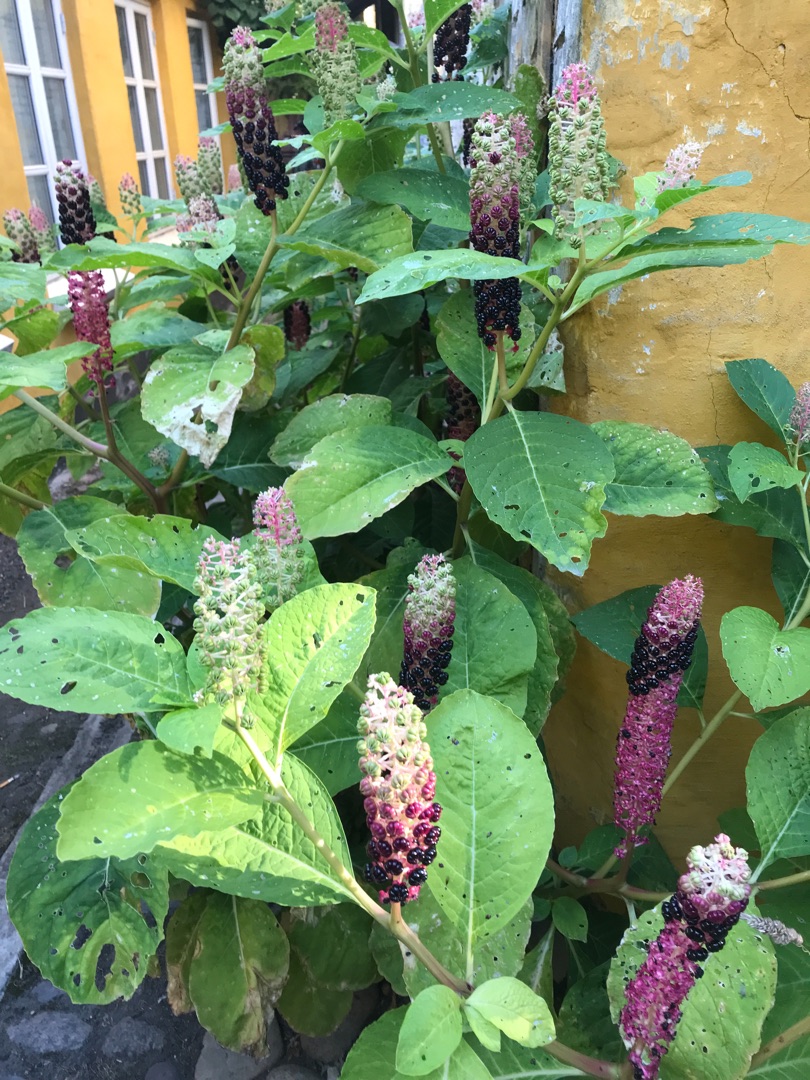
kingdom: Plantae
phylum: Tracheophyta
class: Magnoliopsida
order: Caryophyllales
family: Phytolaccaceae
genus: Phytolacca
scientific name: Phytolacca acinosa
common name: Asiatisk kermesbær
